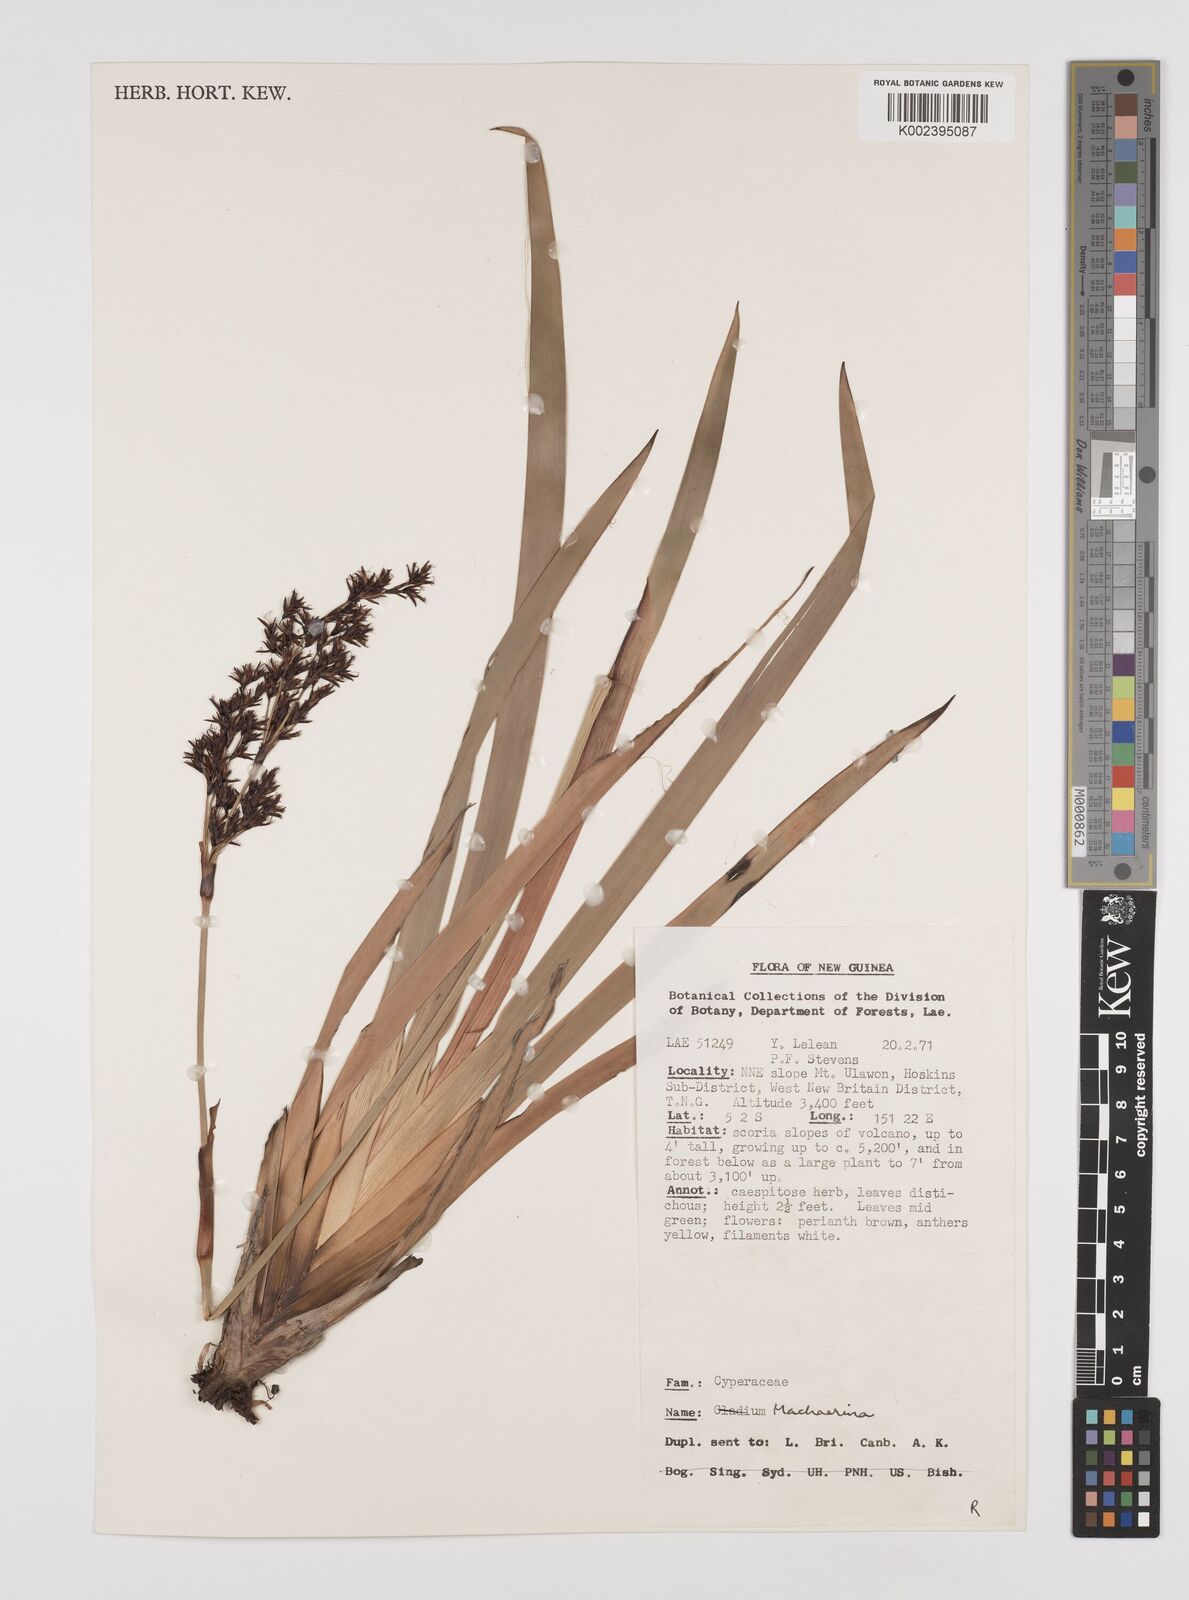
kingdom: Plantae
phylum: Tracheophyta
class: Liliopsida
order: Poales
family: Cyperaceae
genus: Machaerina
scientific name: Machaerina falcata
